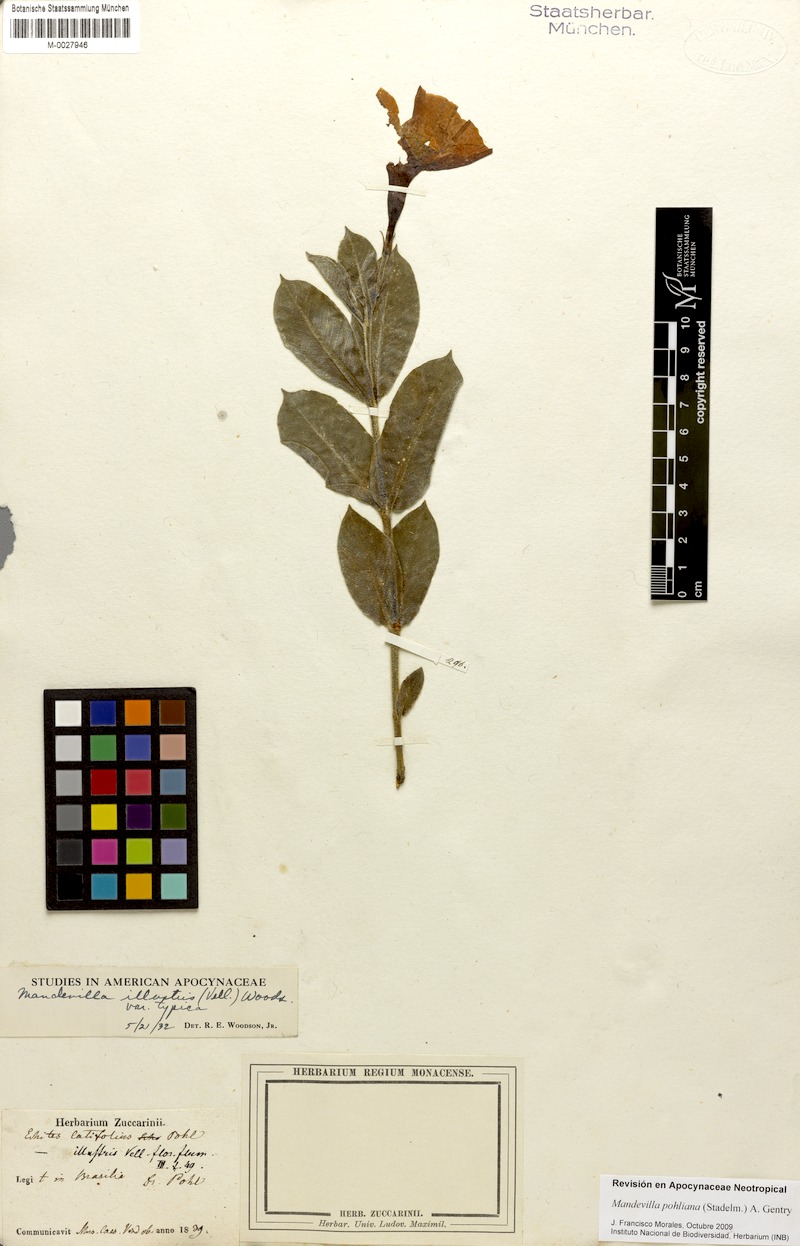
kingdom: Plantae
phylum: Tracheophyta
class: Magnoliopsida
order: Gentianales
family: Apocynaceae
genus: Mandevilla
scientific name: Mandevilla pohliana
